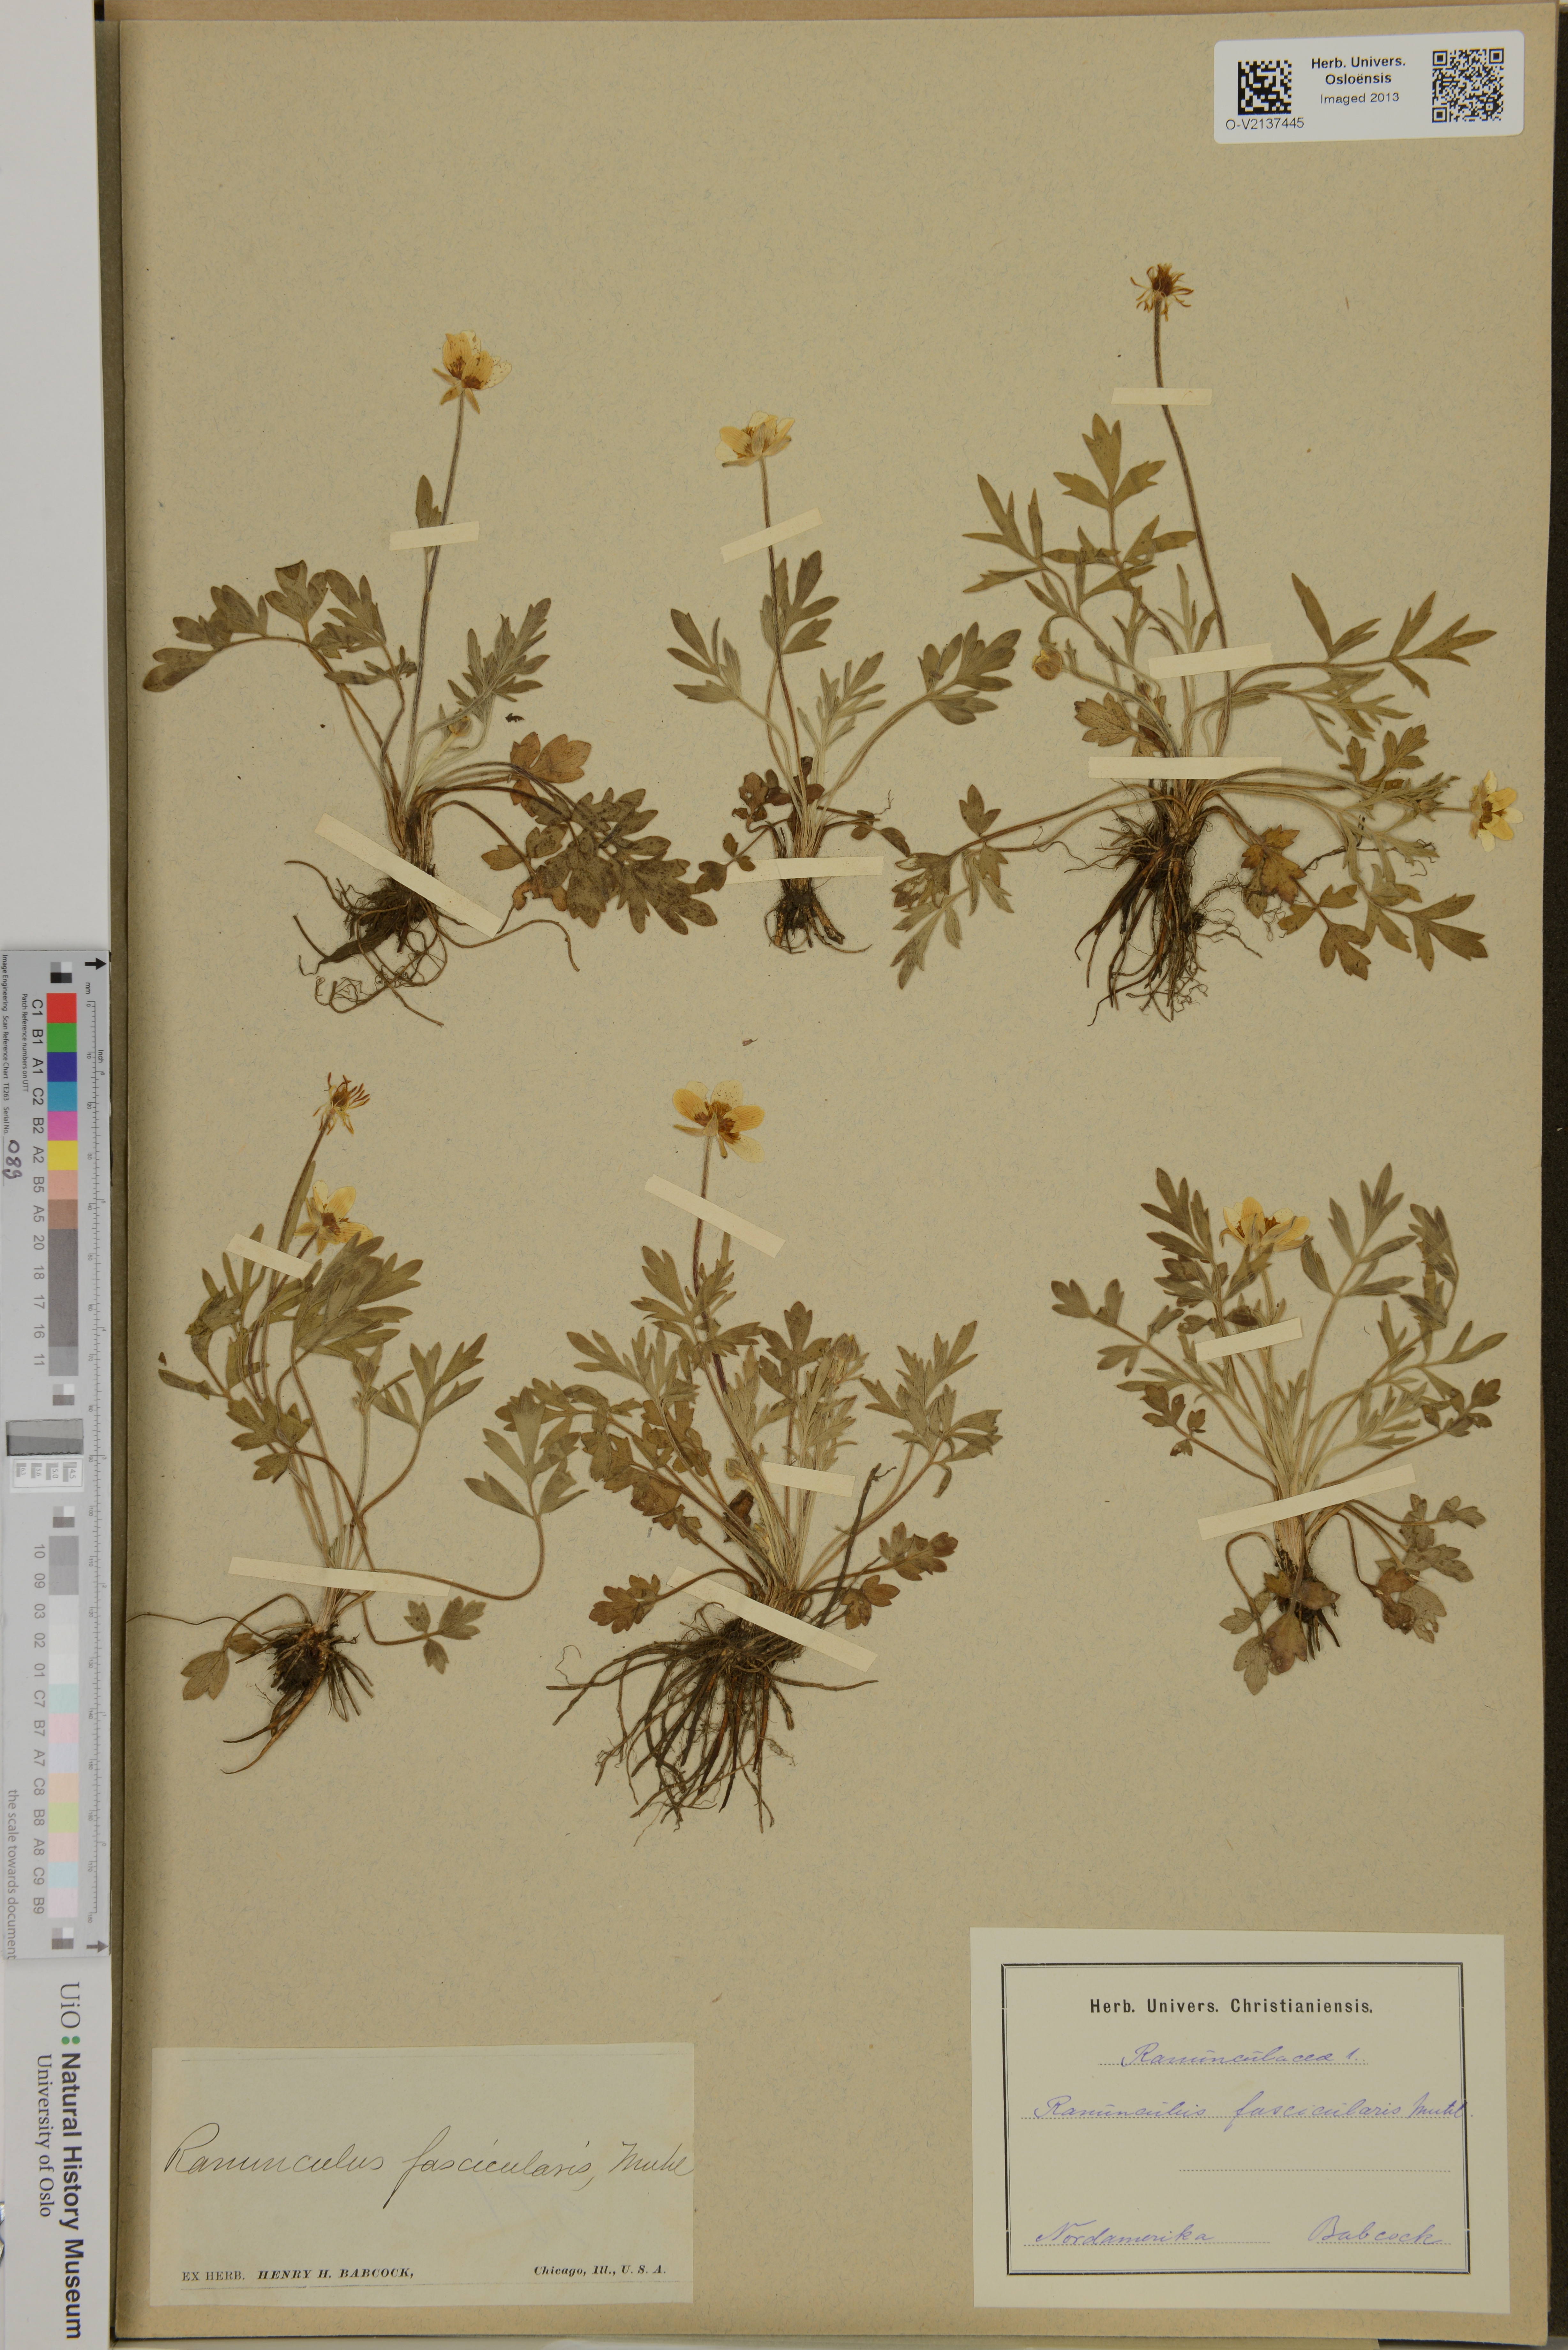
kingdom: Plantae
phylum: Tracheophyta
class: Magnoliopsida
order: Ranunculales
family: Ranunculaceae
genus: Ranunculus
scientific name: Ranunculus fascicularis
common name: Early buttercup
